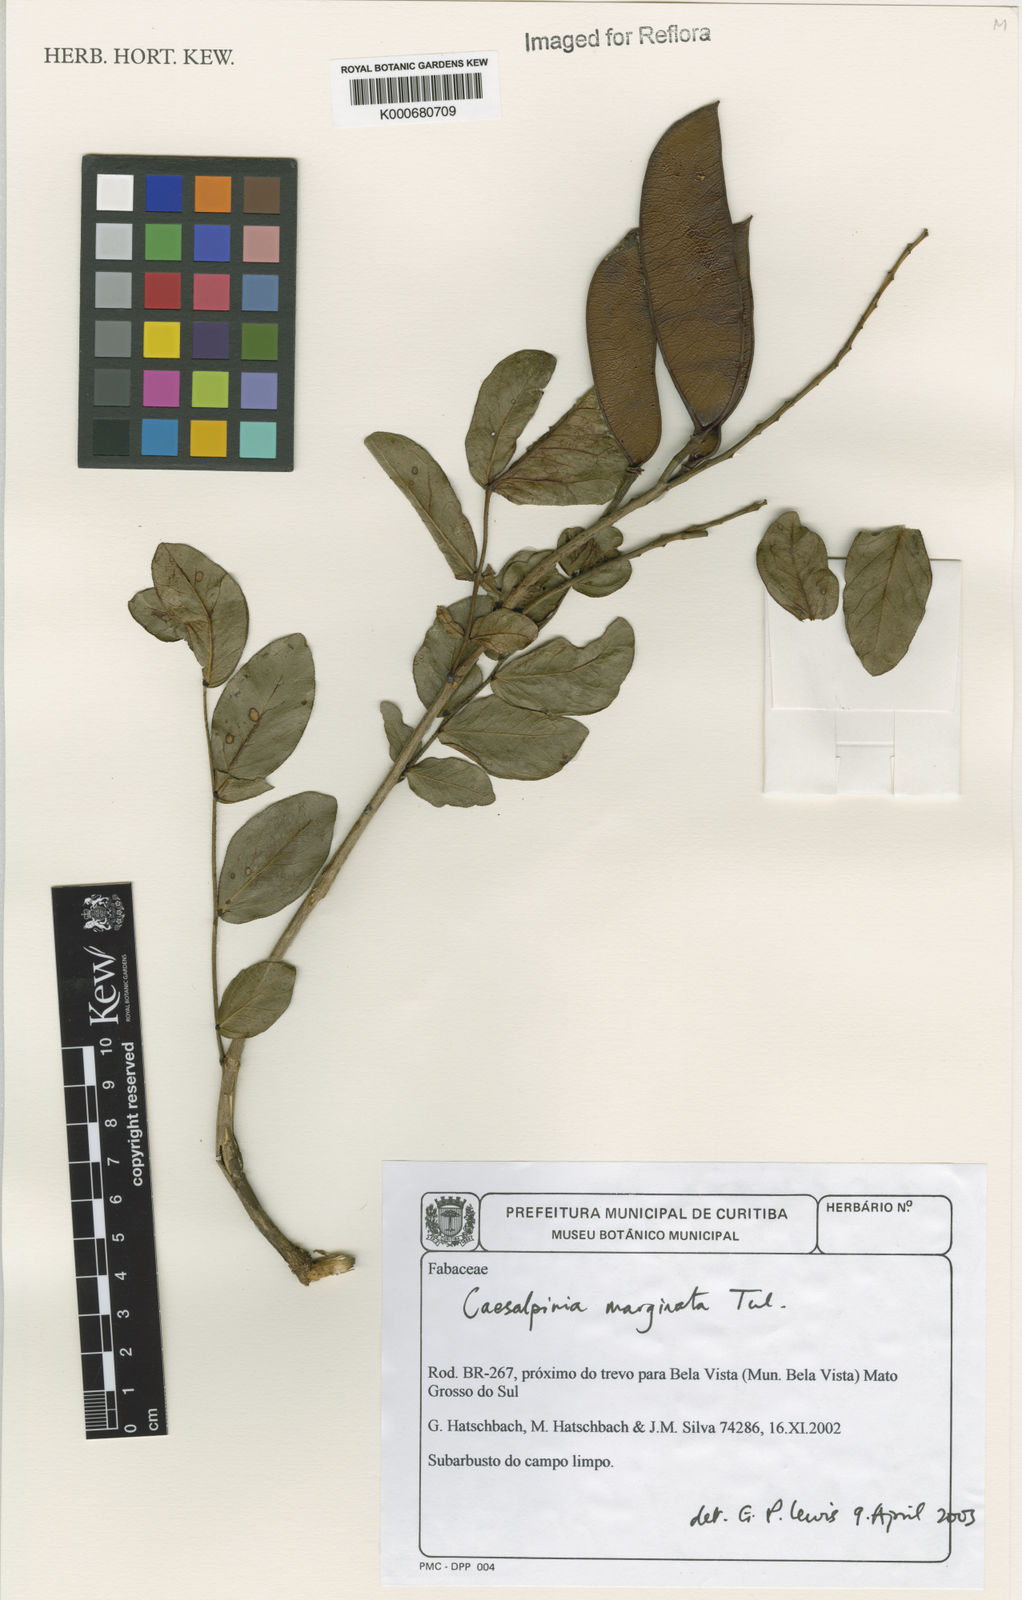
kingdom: Plantae
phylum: Tracheophyta
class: Magnoliopsida
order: Fabales
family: Fabaceae
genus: Cenostigma
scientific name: Cenostigma marginatum
